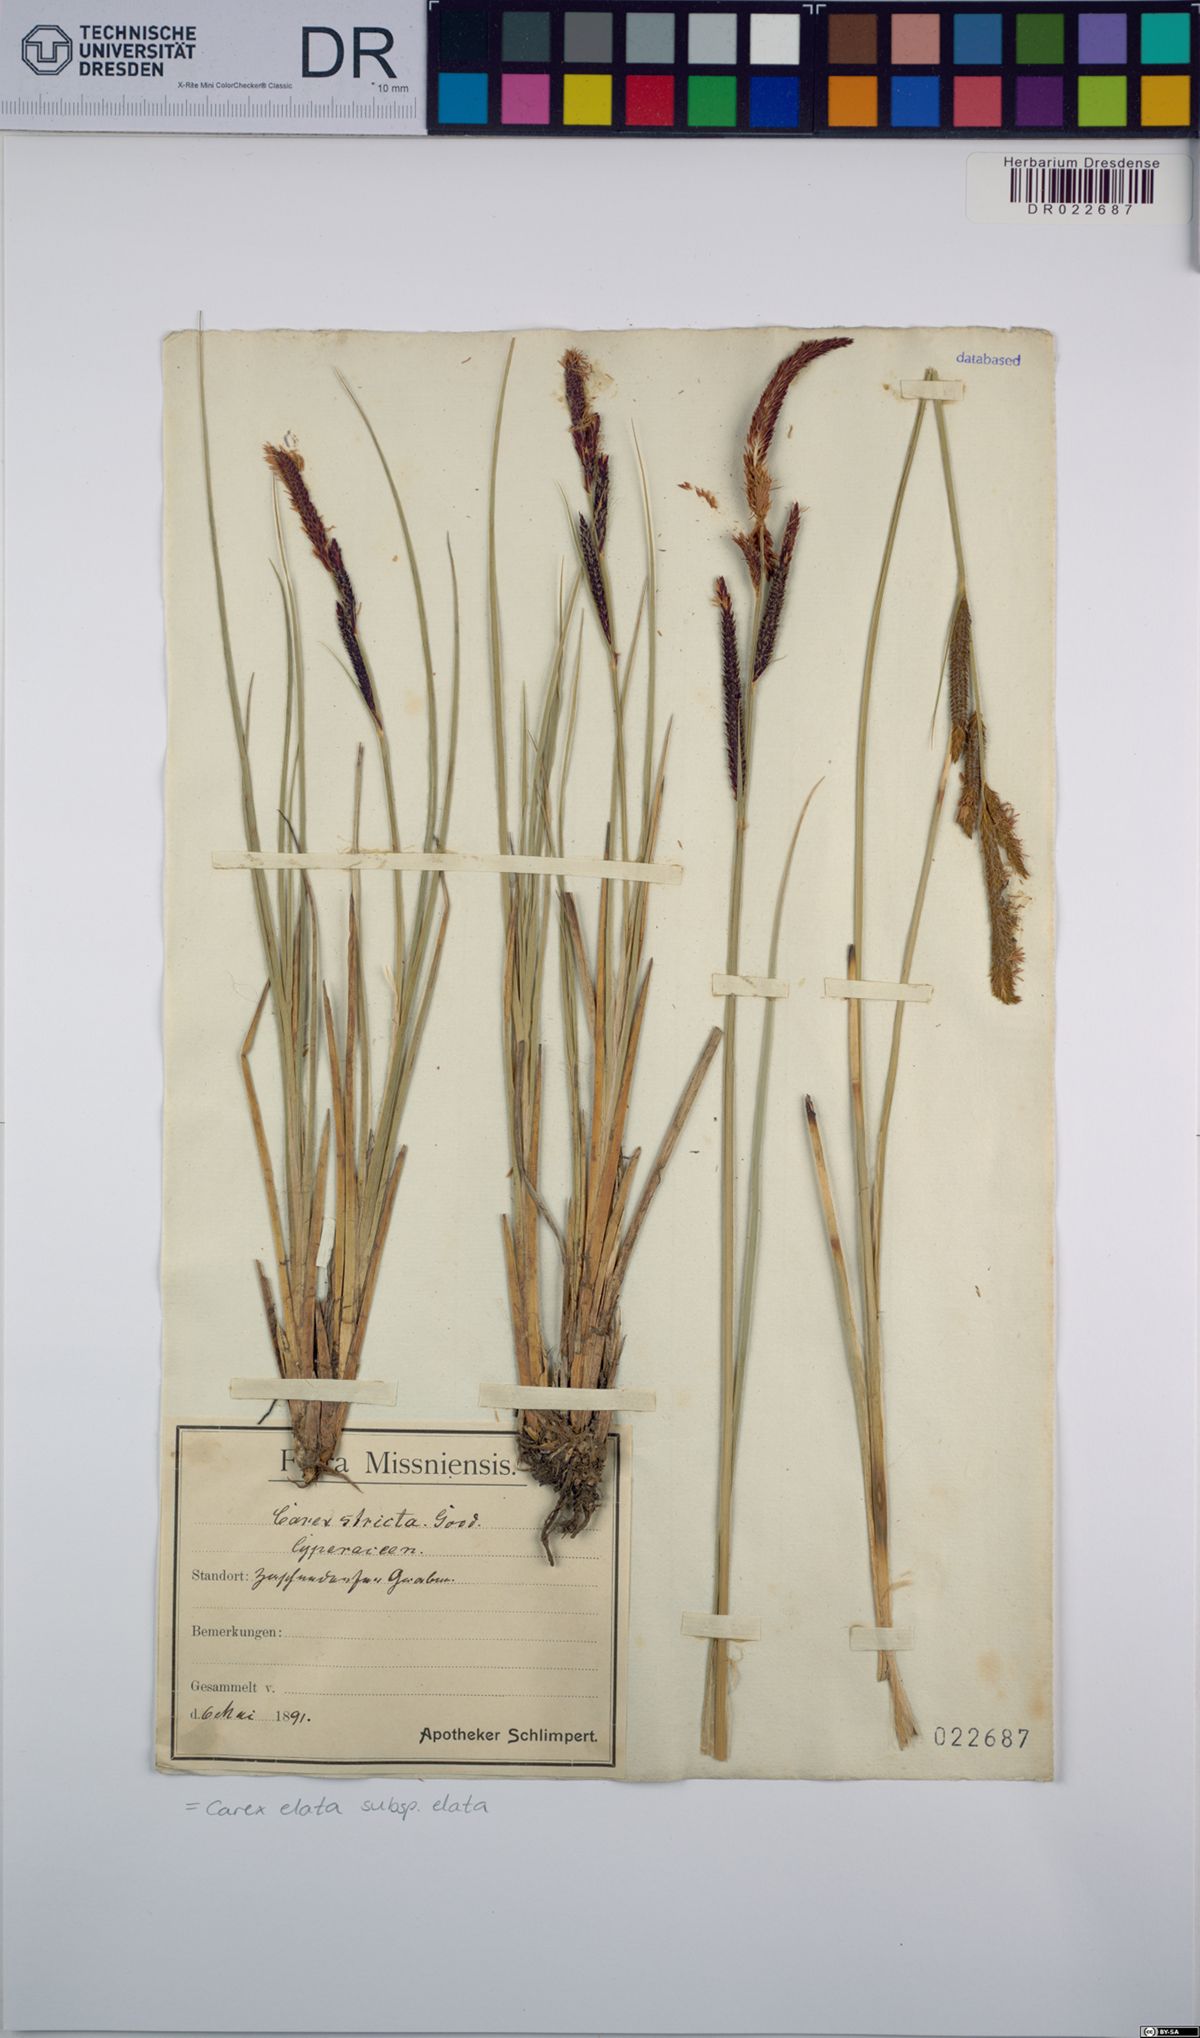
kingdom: Plantae
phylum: Tracheophyta
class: Liliopsida
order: Poales
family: Cyperaceae
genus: Carex
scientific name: Carex elata
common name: Tufted sedge
